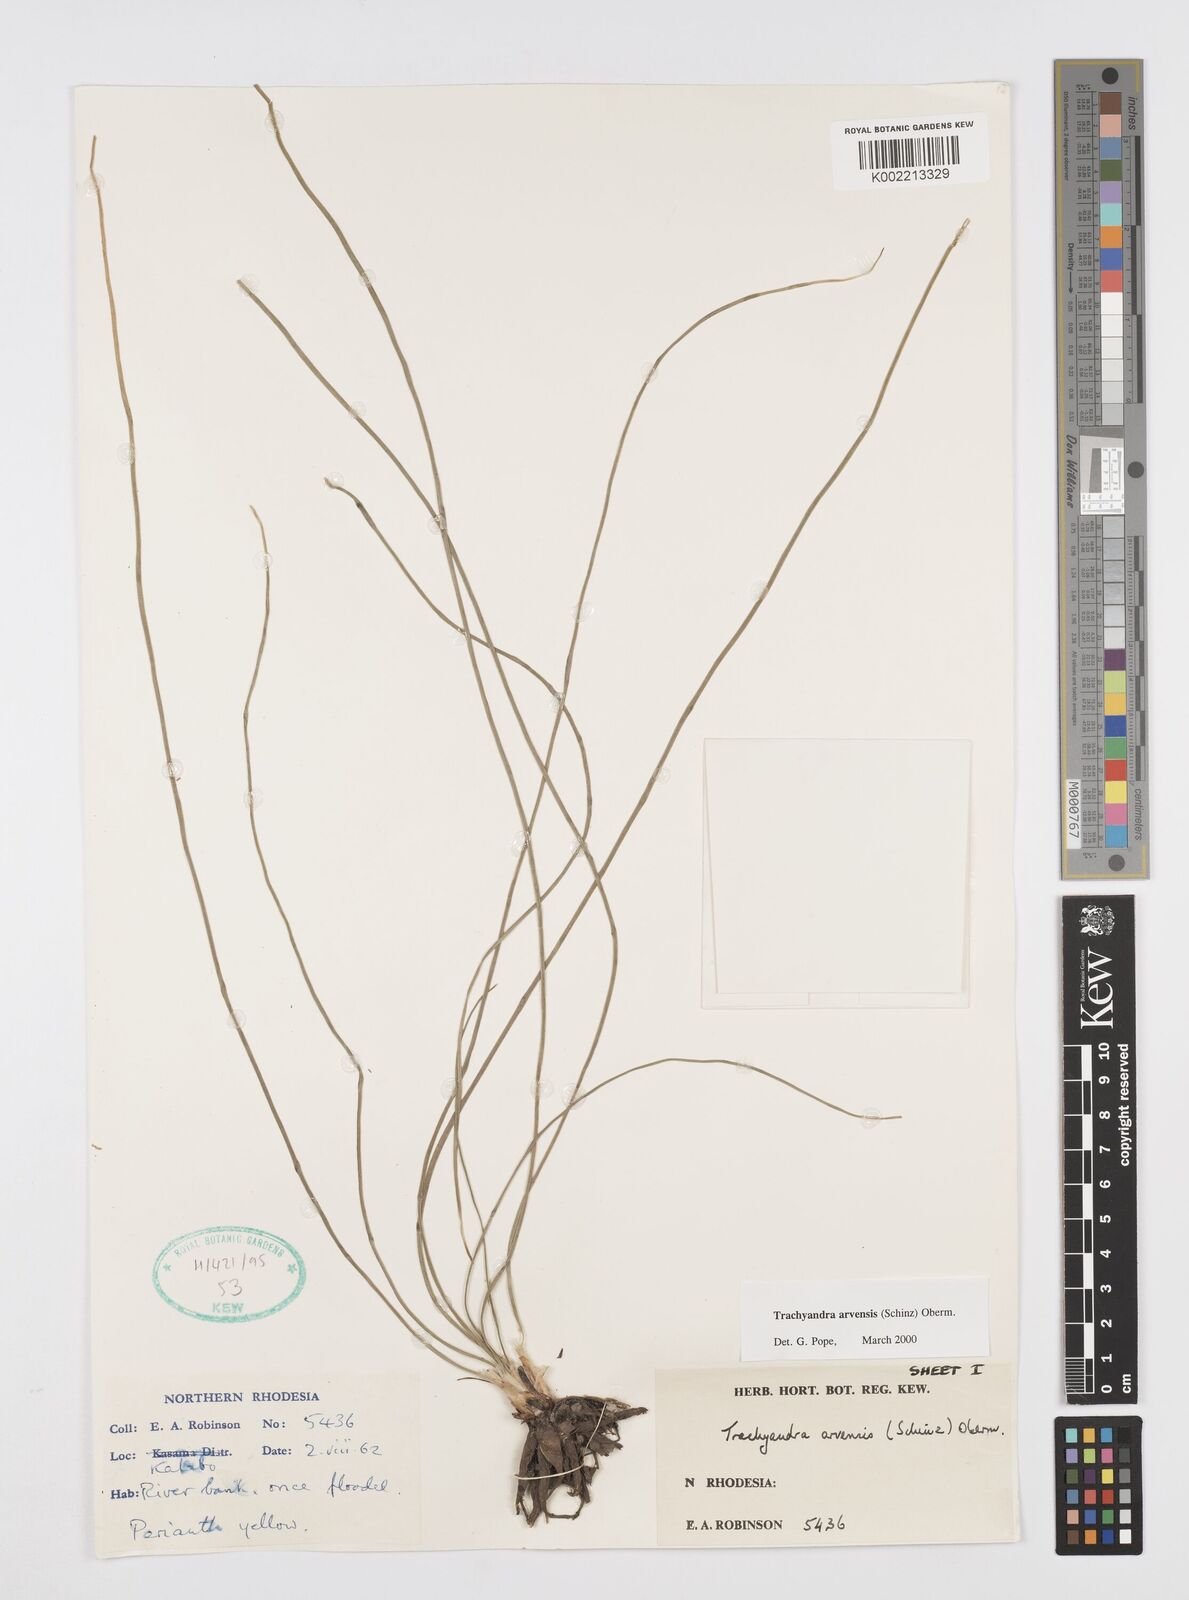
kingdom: Plantae
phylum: Tracheophyta
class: Liliopsida
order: Asparagales
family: Asphodelaceae
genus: Trachyandra
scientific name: Trachyandra arvensis
